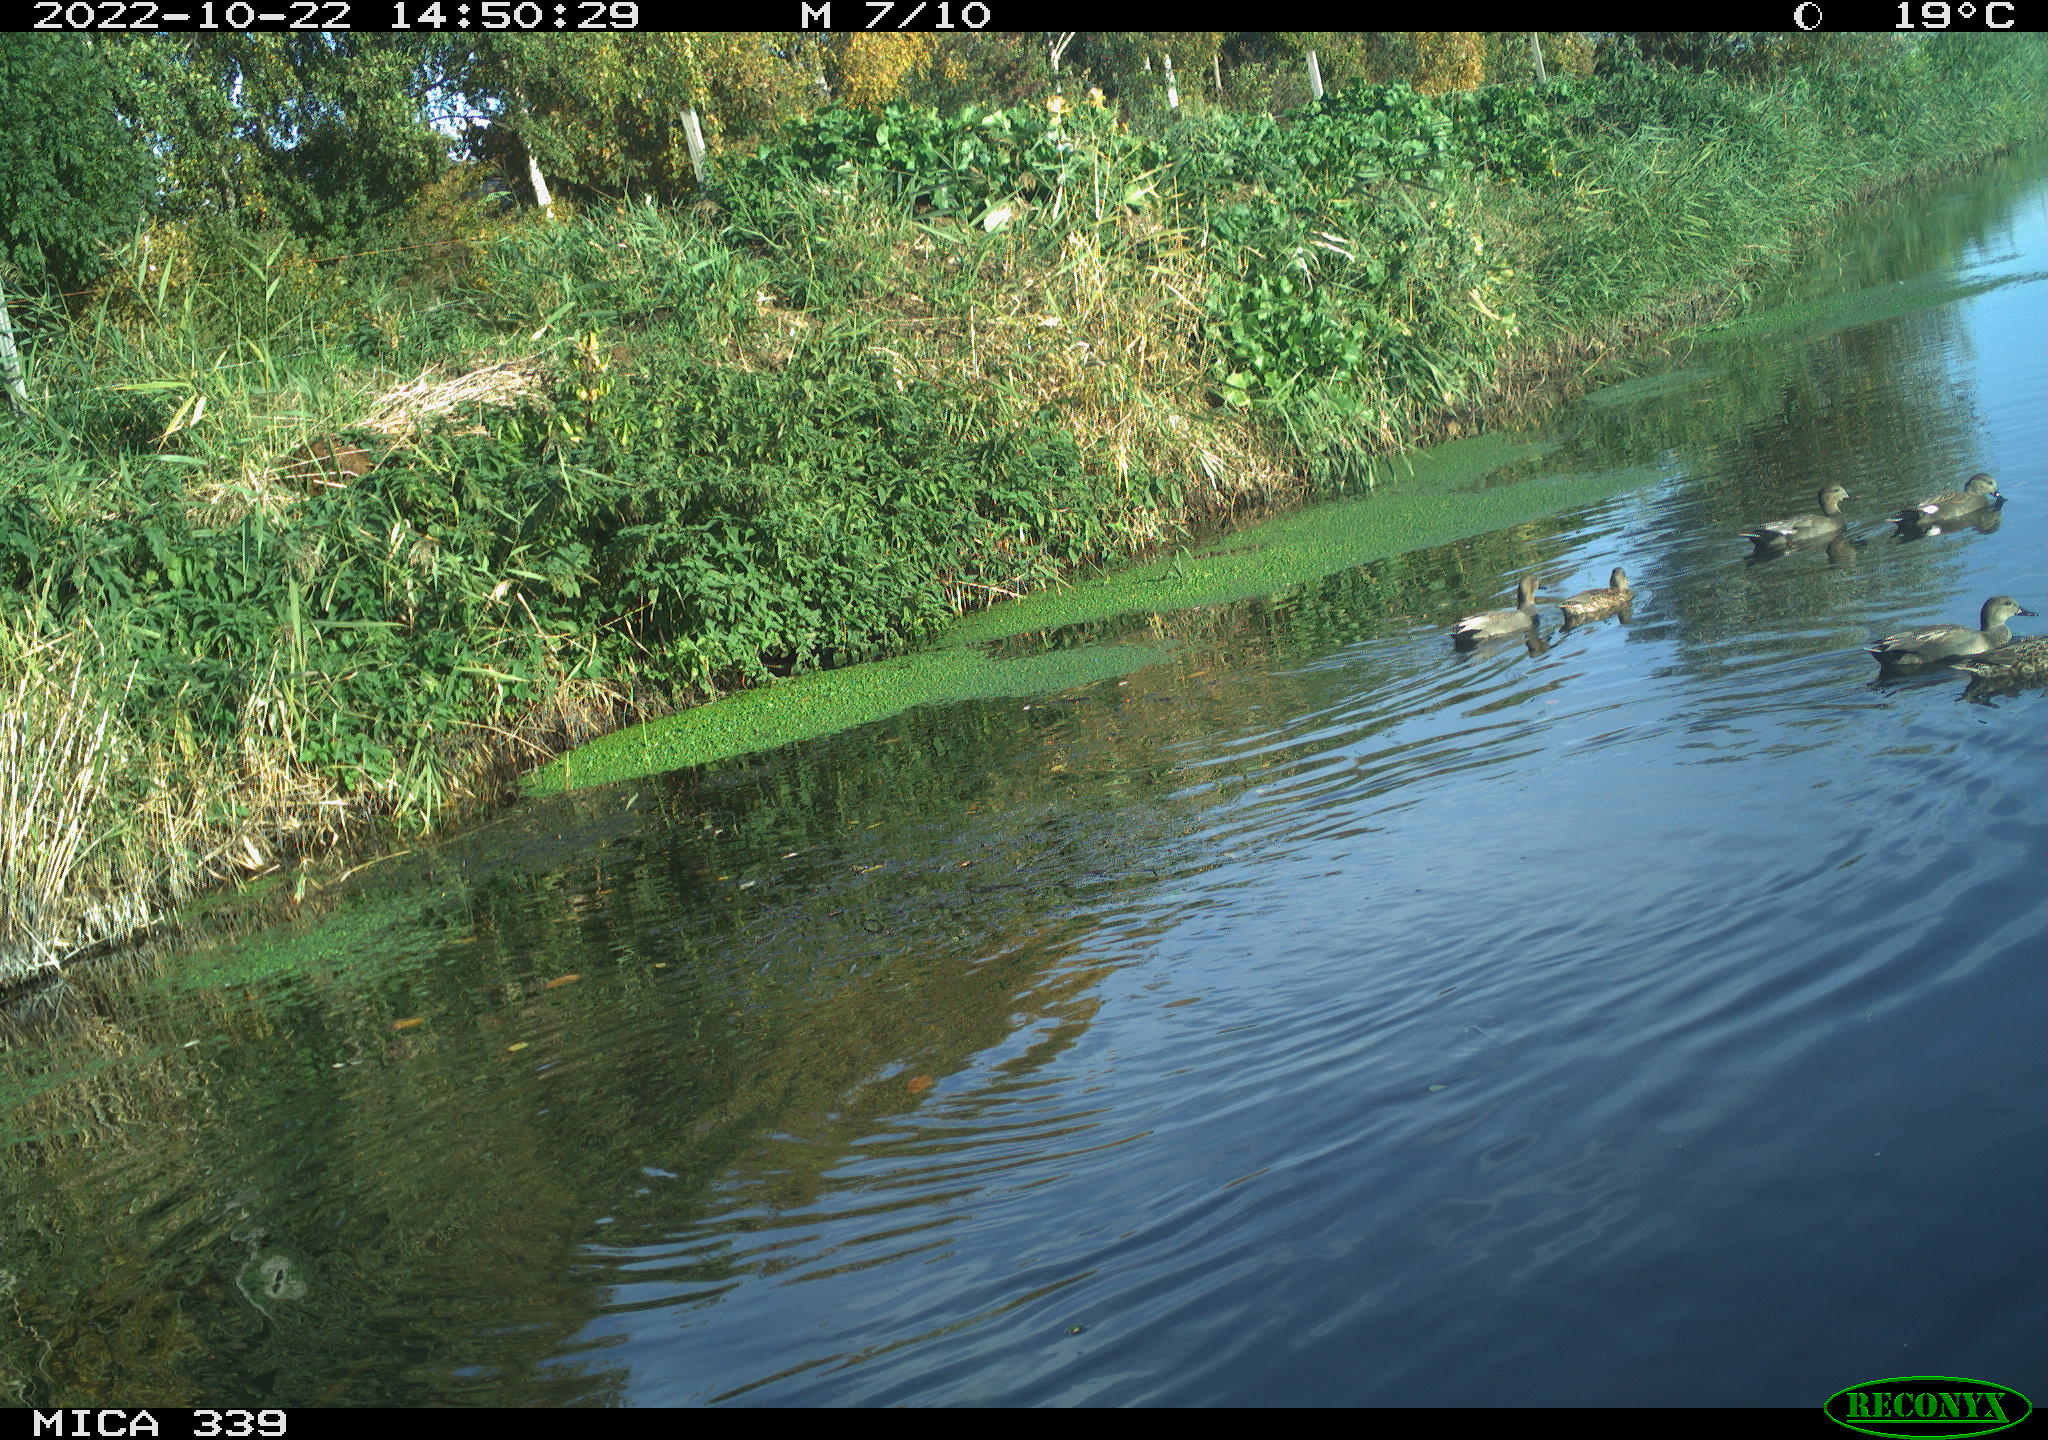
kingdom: Animalia
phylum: Chordata
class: Aves
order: Anseriformes
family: Anatidae
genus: Mareca
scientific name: Mareca strepera
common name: Gadwall
